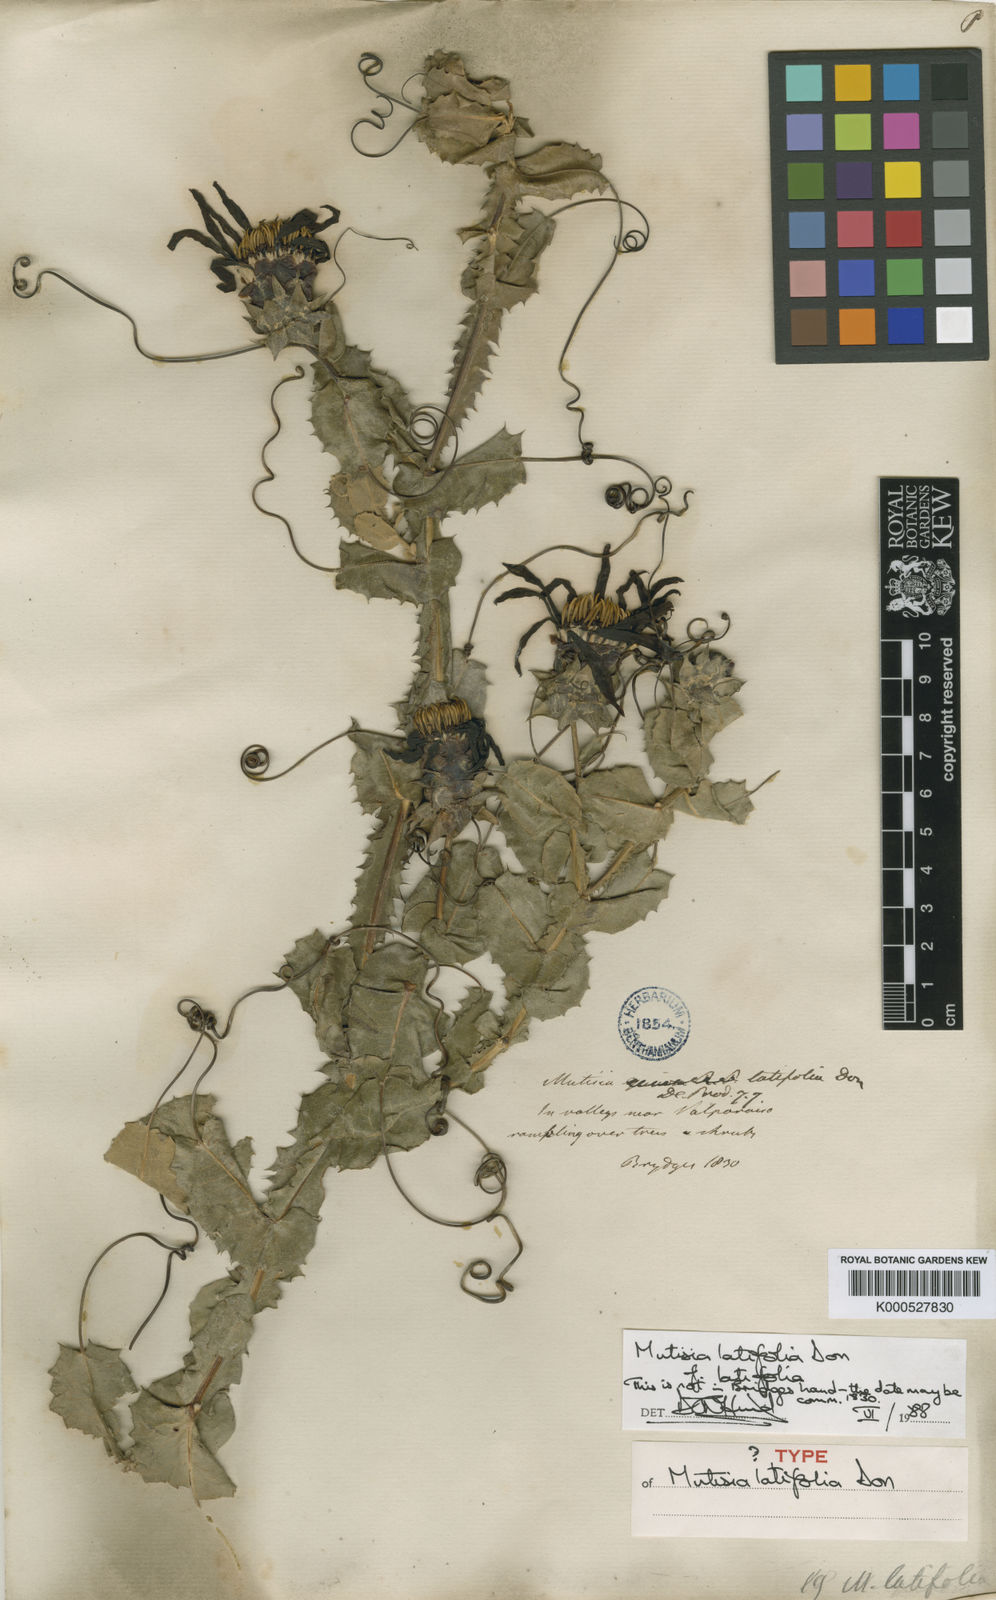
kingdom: Plantae
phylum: Tracheophyta
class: Magnoliopsida
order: Asterales
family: Asteraceae
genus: Mutisia
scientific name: Mutisia latifolia
